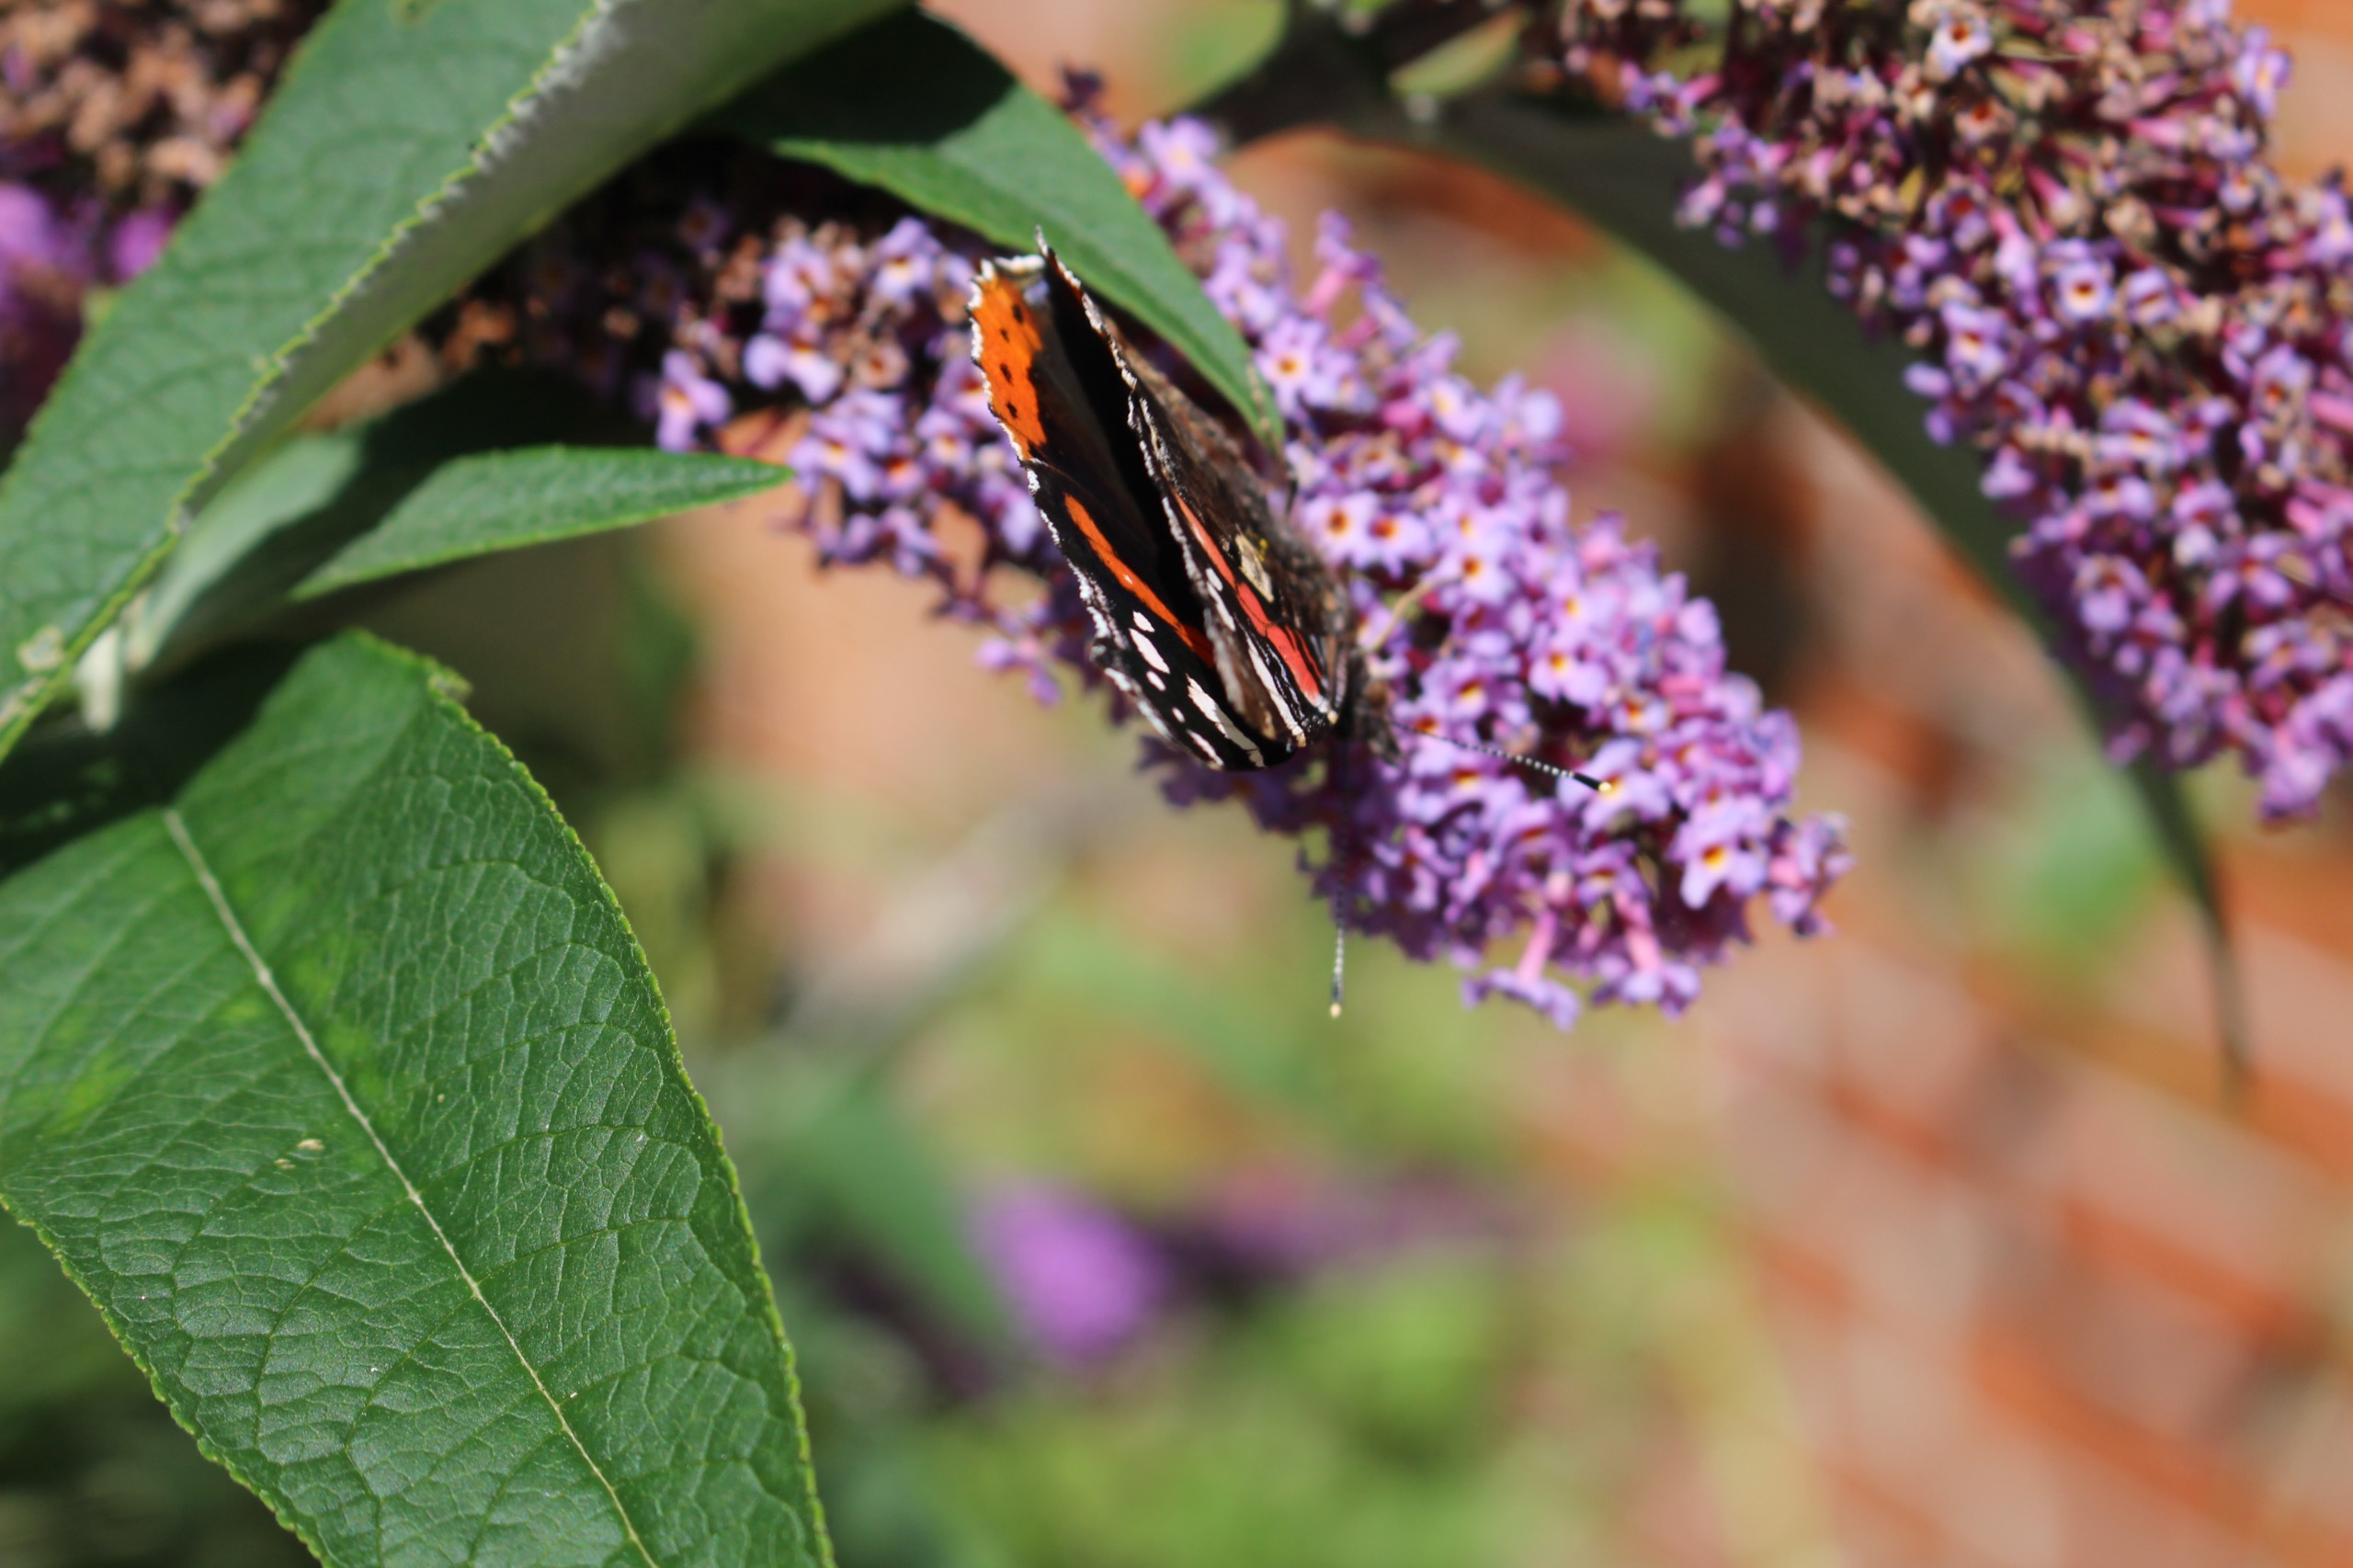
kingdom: Animalia
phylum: Arthropoda
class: Insecta
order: Lepidoptera
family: Nymphalidae
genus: Vanessa
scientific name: Vanessa atalanta
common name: Admiral
